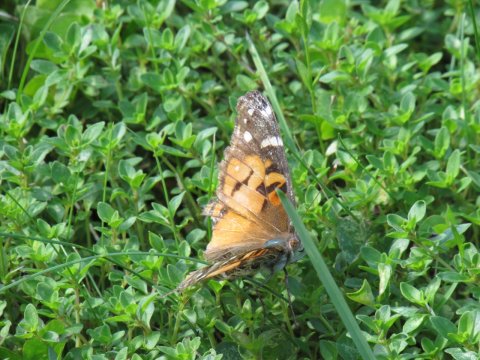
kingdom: Animalia
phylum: Arthropoda
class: Insecta
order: Lepidoptera
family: Nymphalidae
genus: Vanessa
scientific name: Vanessa virginiensis
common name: American Lady
